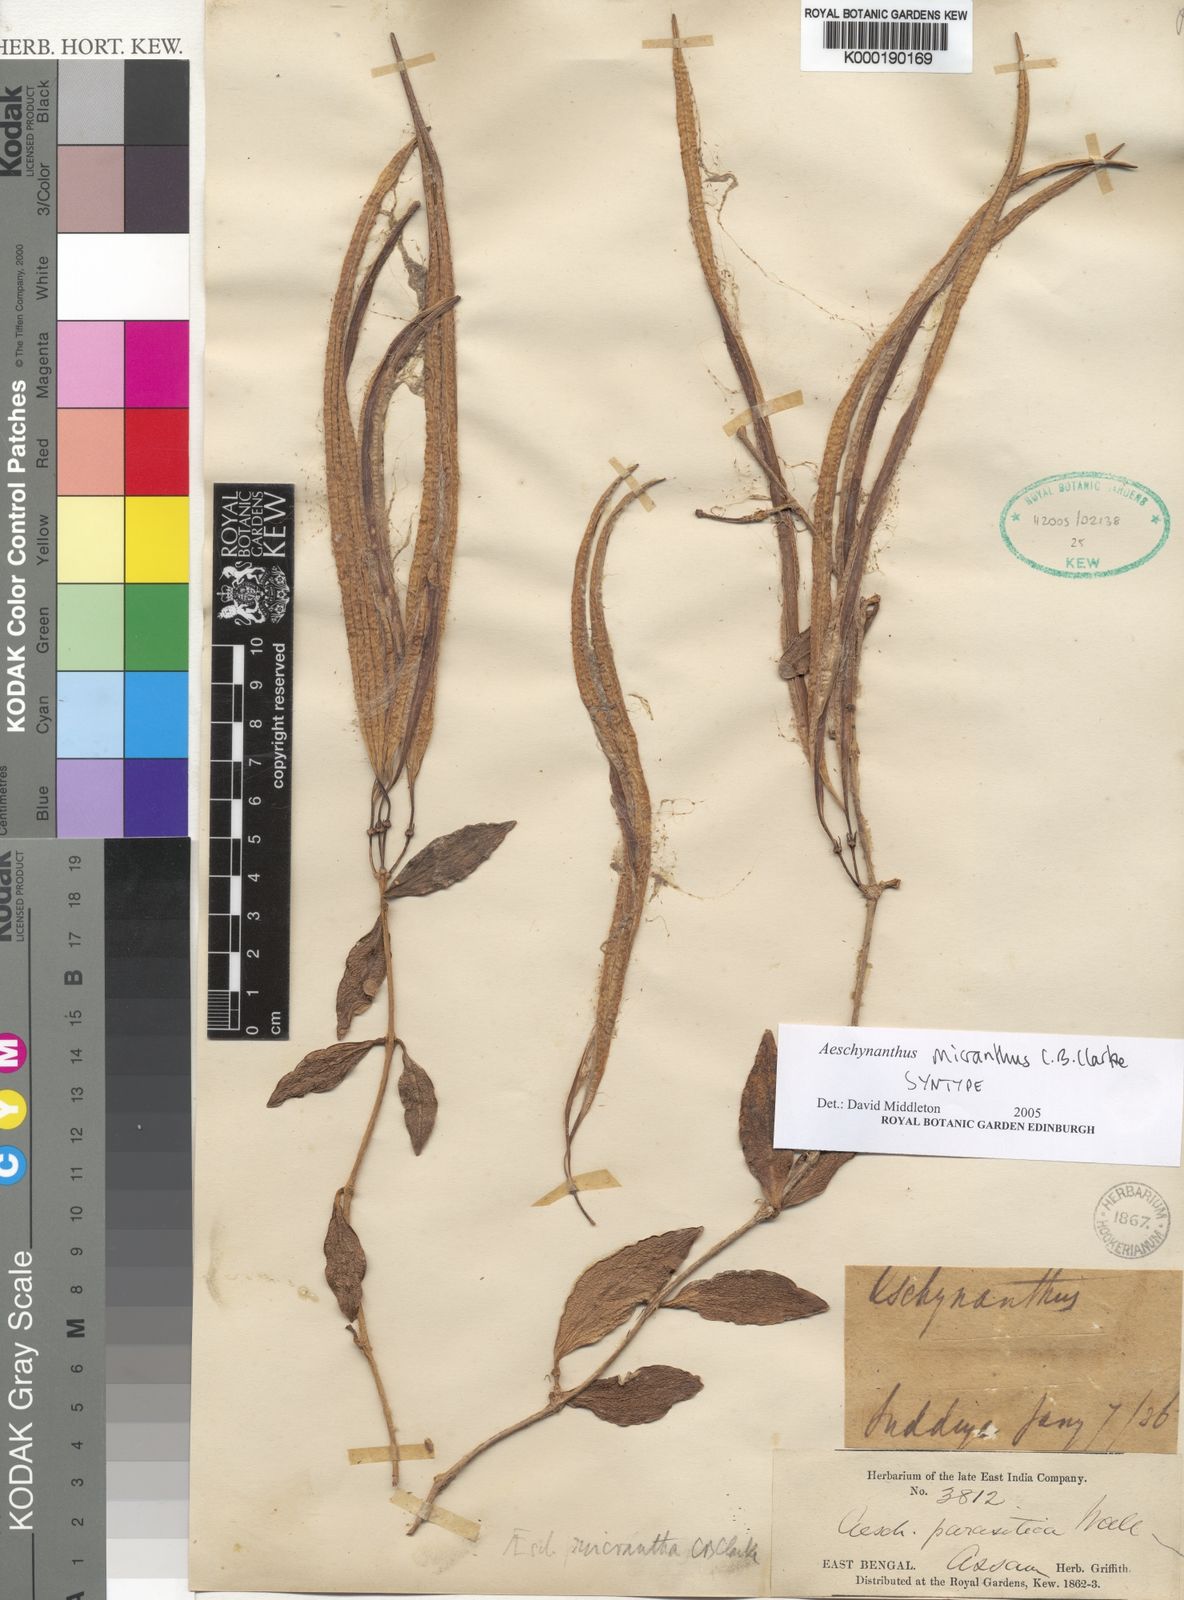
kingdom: Plantae
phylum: Tracheophyta
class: Magnoliopsida
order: Lamiales
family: Gesneriaceae
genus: Aeschynanthus
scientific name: Aeschynanthus micranthus
